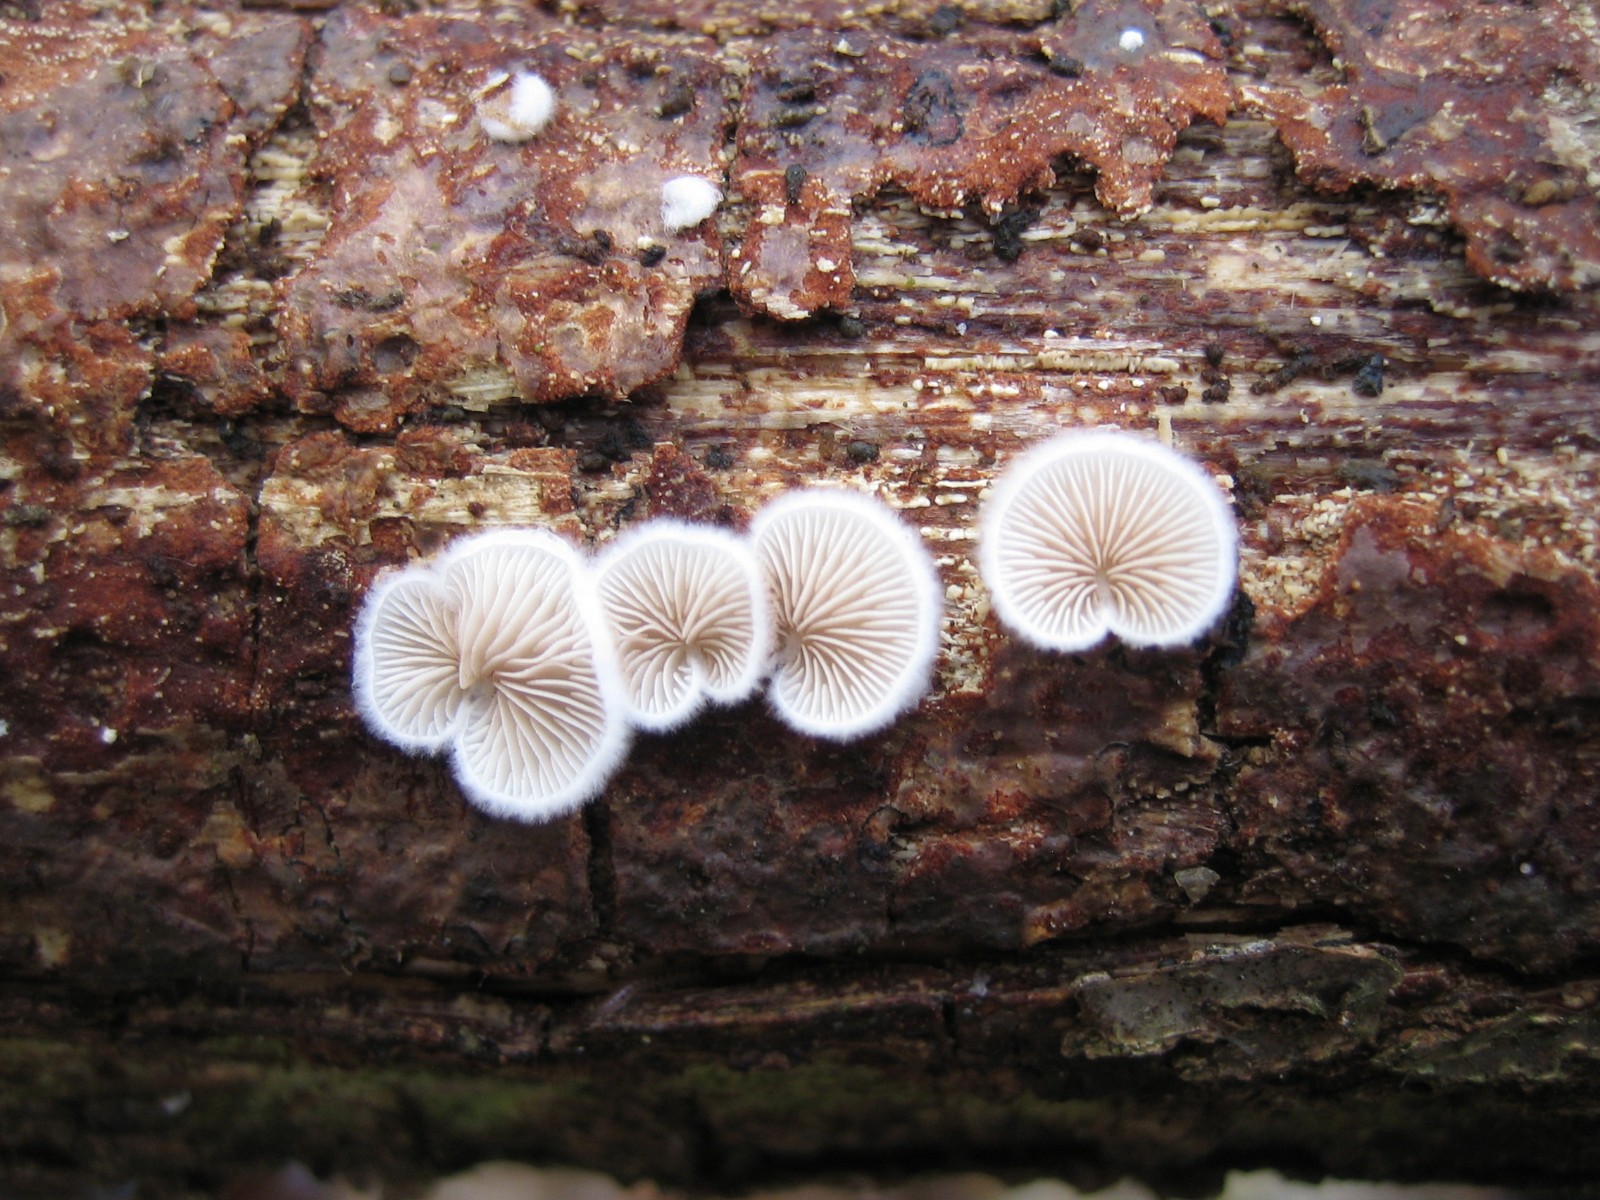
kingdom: Fungi
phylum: Basidiomycota
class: Agaricomycetes
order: Agaricales
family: Crepidotaceae
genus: Crepidotus
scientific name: Crepidotus
